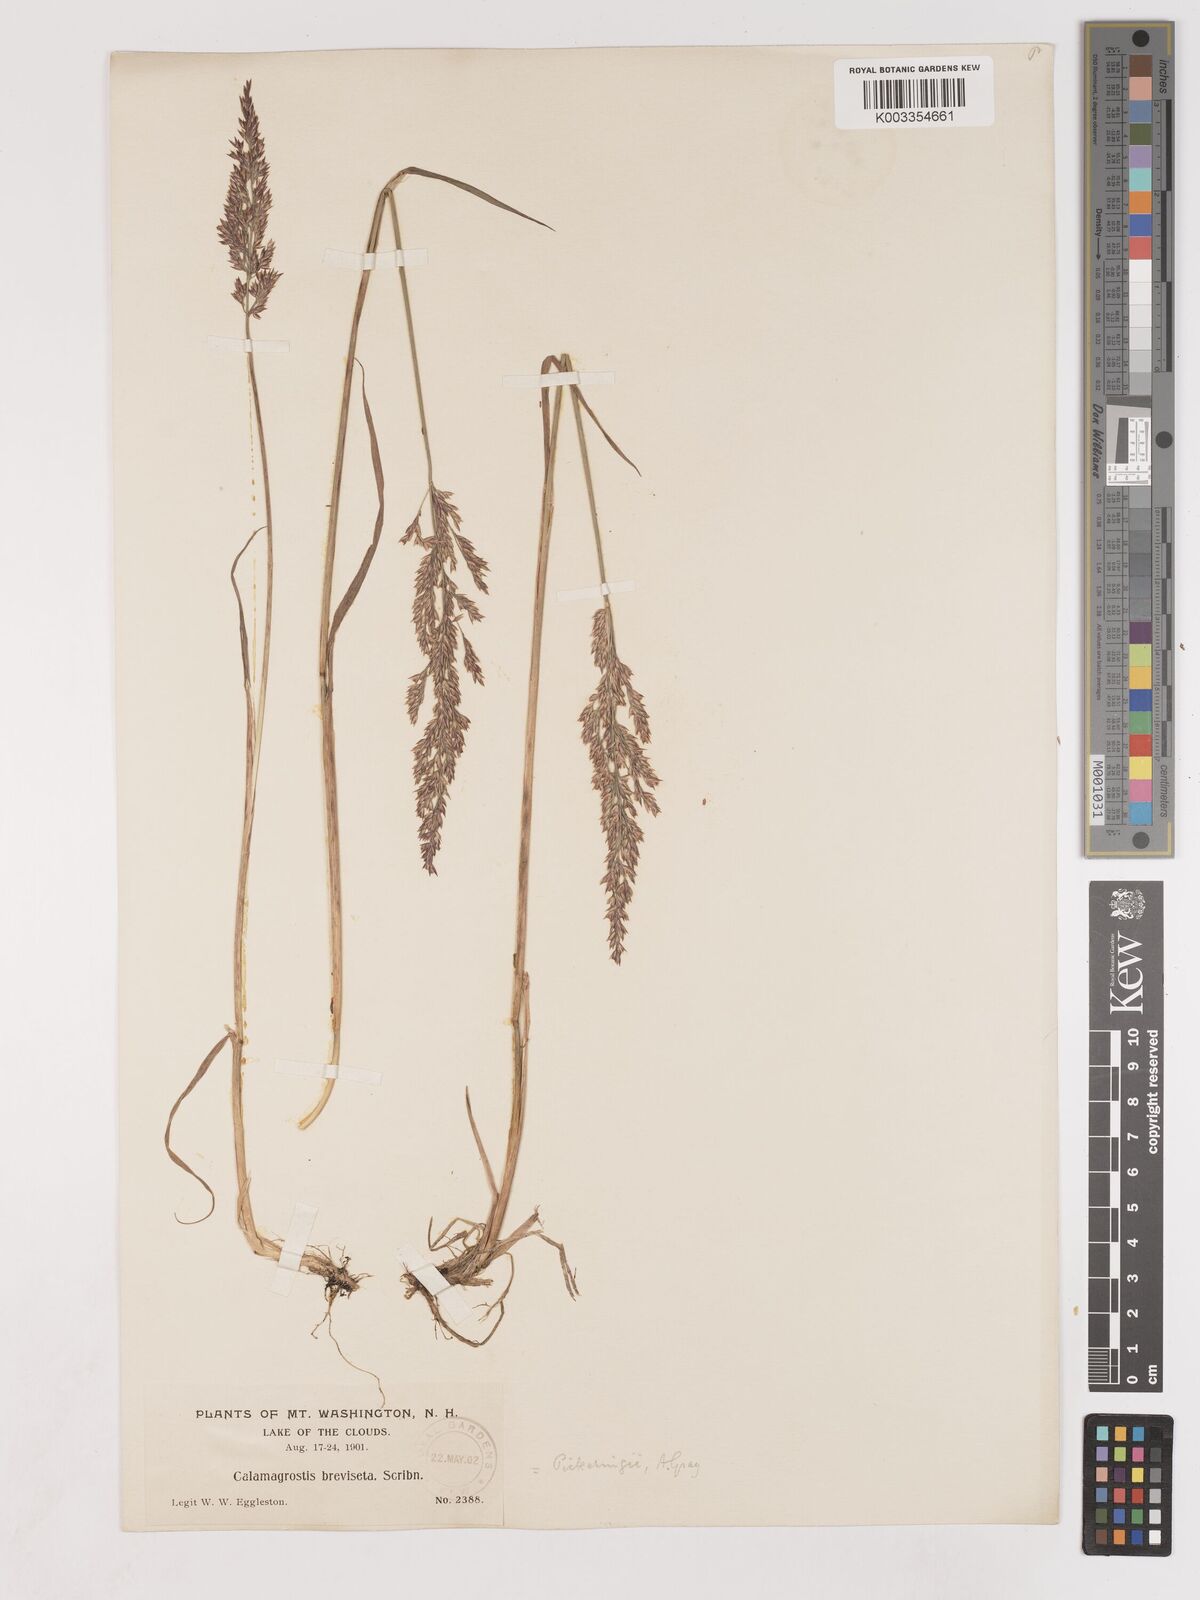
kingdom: Plantae
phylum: Tracheophyta
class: Liliopsida
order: Poales
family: Poaceae
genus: Calamagrostis
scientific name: Calamagrostis pickeringii
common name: Pickering's reed bentgrass
